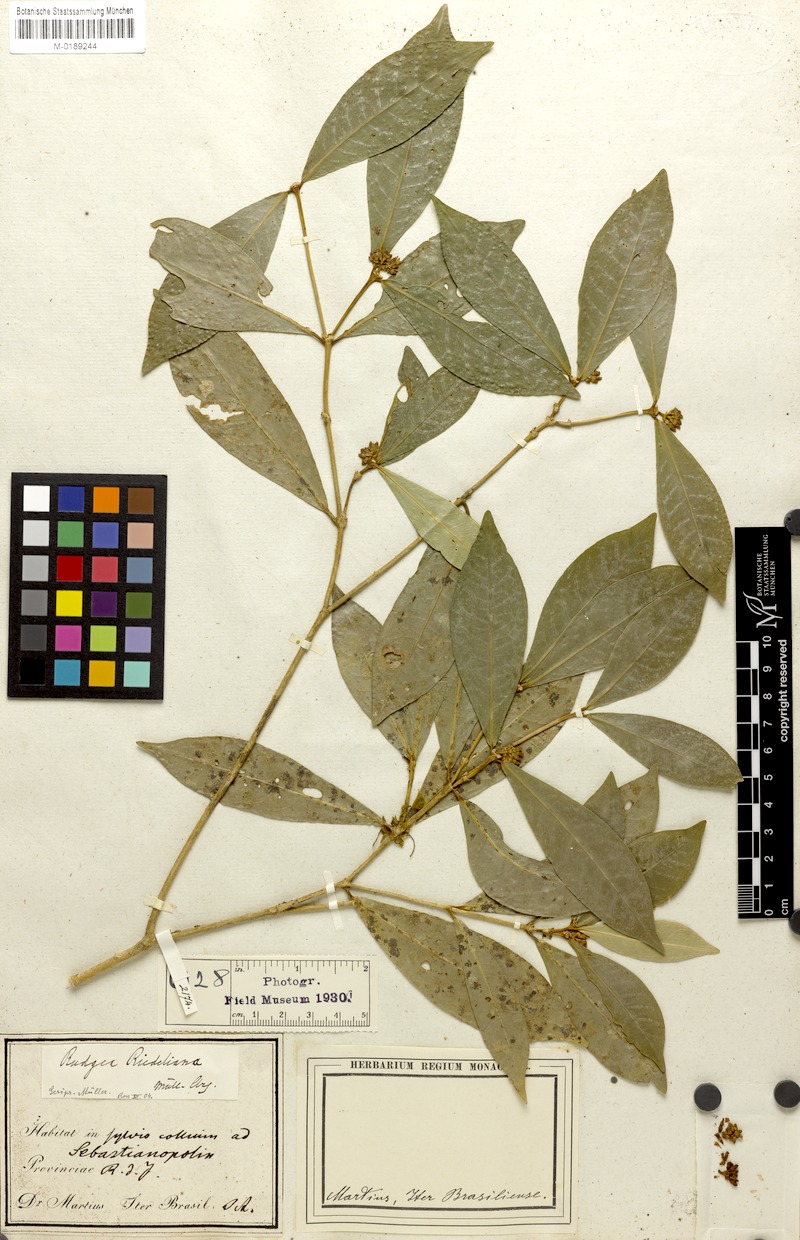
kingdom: Plantae
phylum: Tracheophyta
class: Magnoliopsida
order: Gentianales
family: Rubiaceae
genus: Rudgea
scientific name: Rudgea coronata
